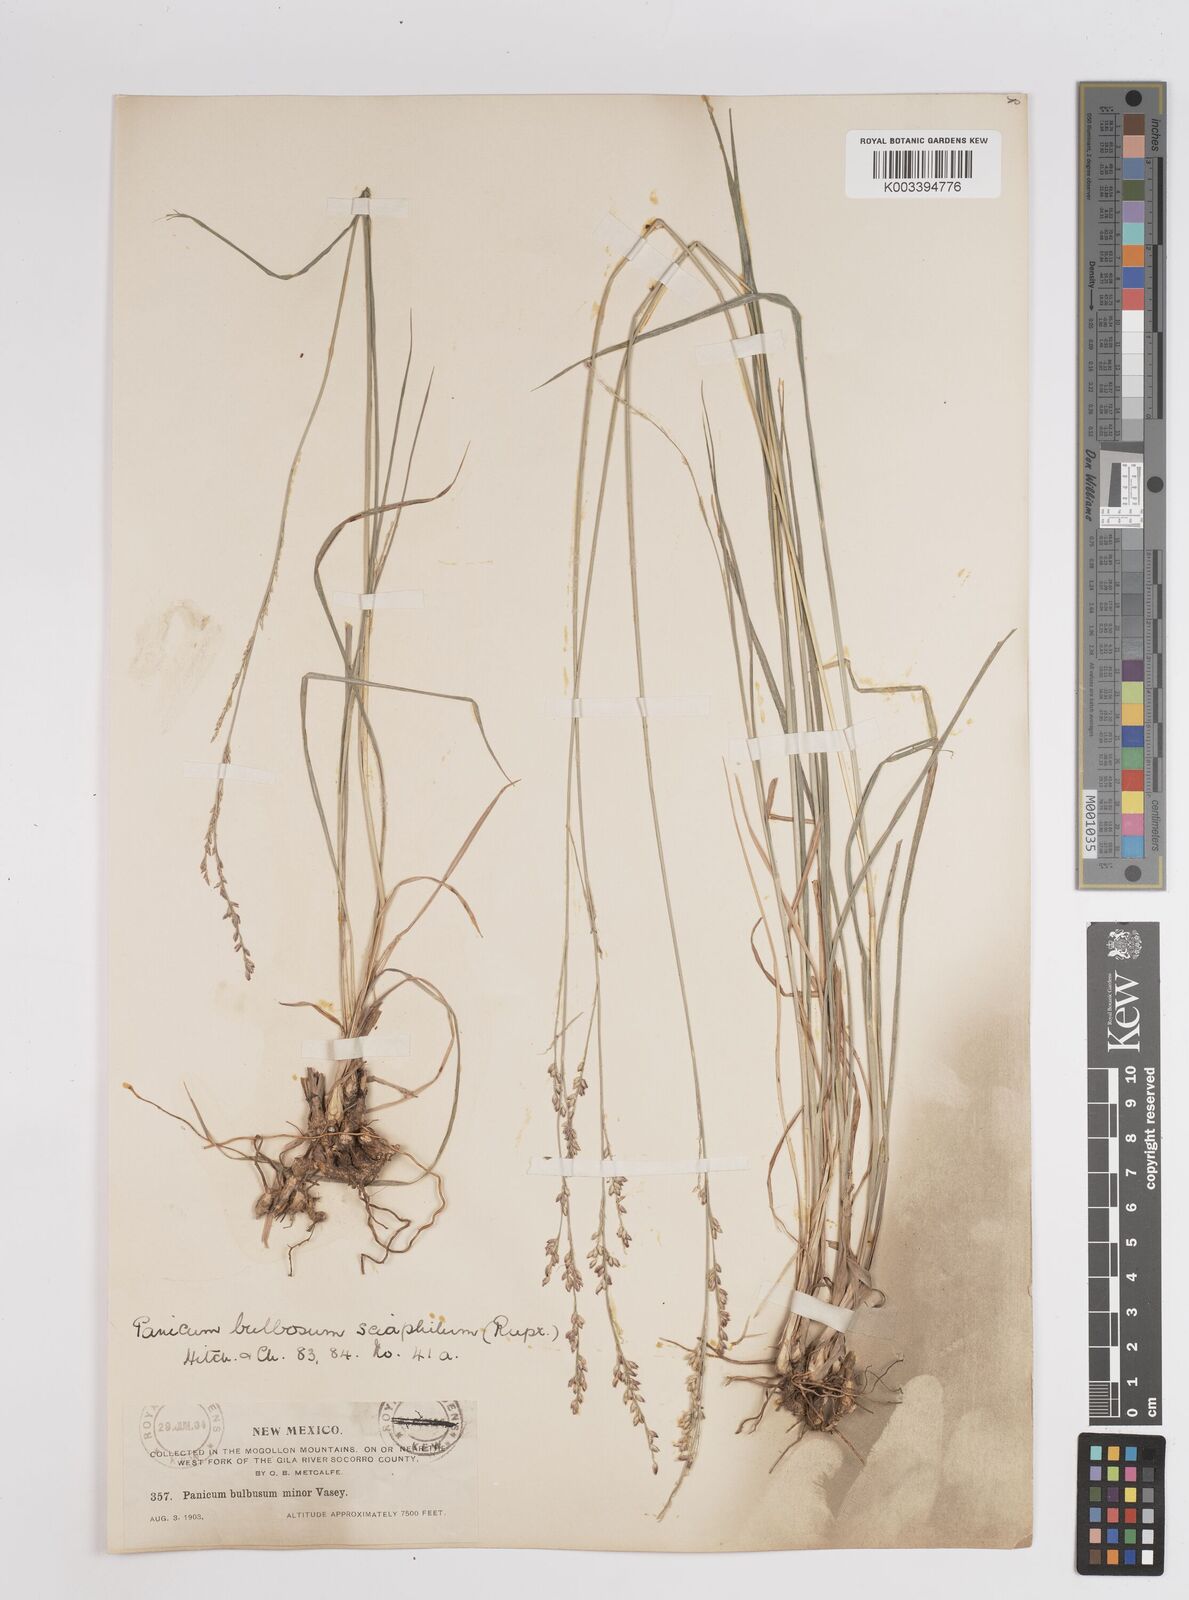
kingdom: Plantae
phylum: Tracheophyta
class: Liliopsida
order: Poales
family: Poaceae
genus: Zuloagaea
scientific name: Zuloagaea bulbosa
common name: Canyon panic grass
